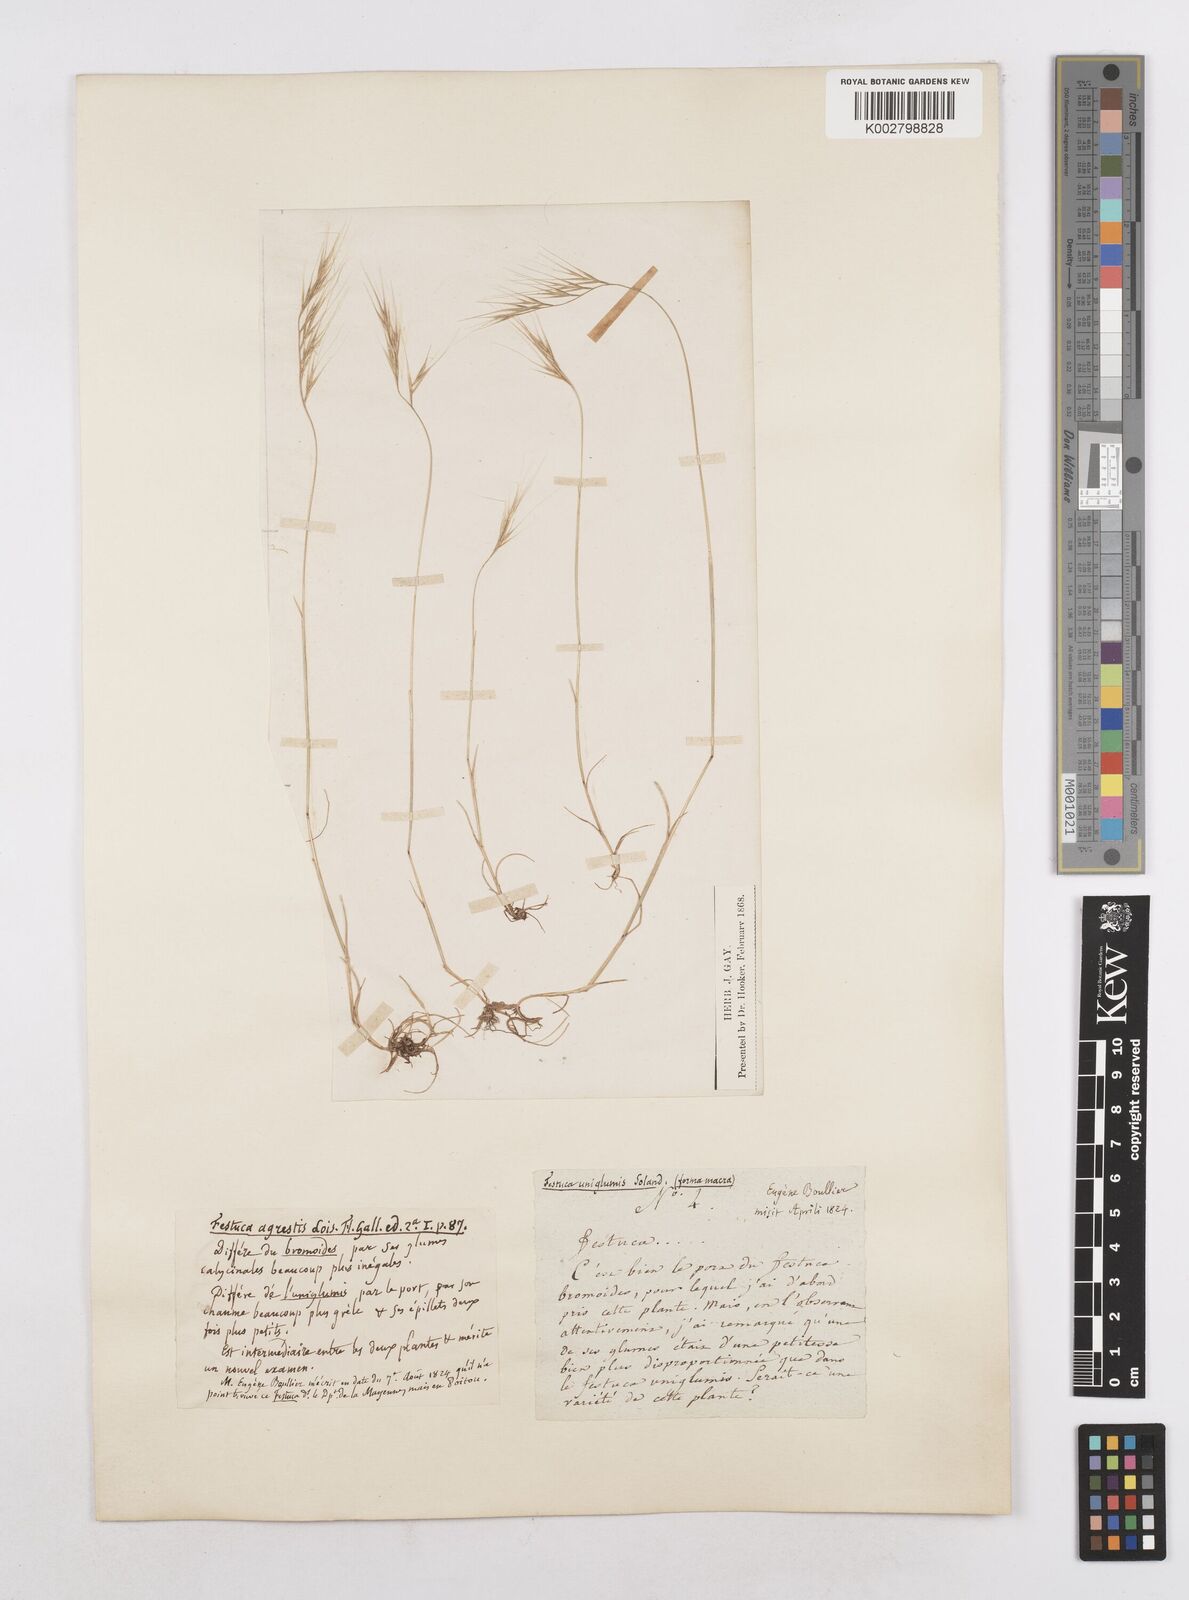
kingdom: Plantae
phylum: Tracheophyta
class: Liliopsida
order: Poales
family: Poaceae
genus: Festuca
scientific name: Festuca membranacea
